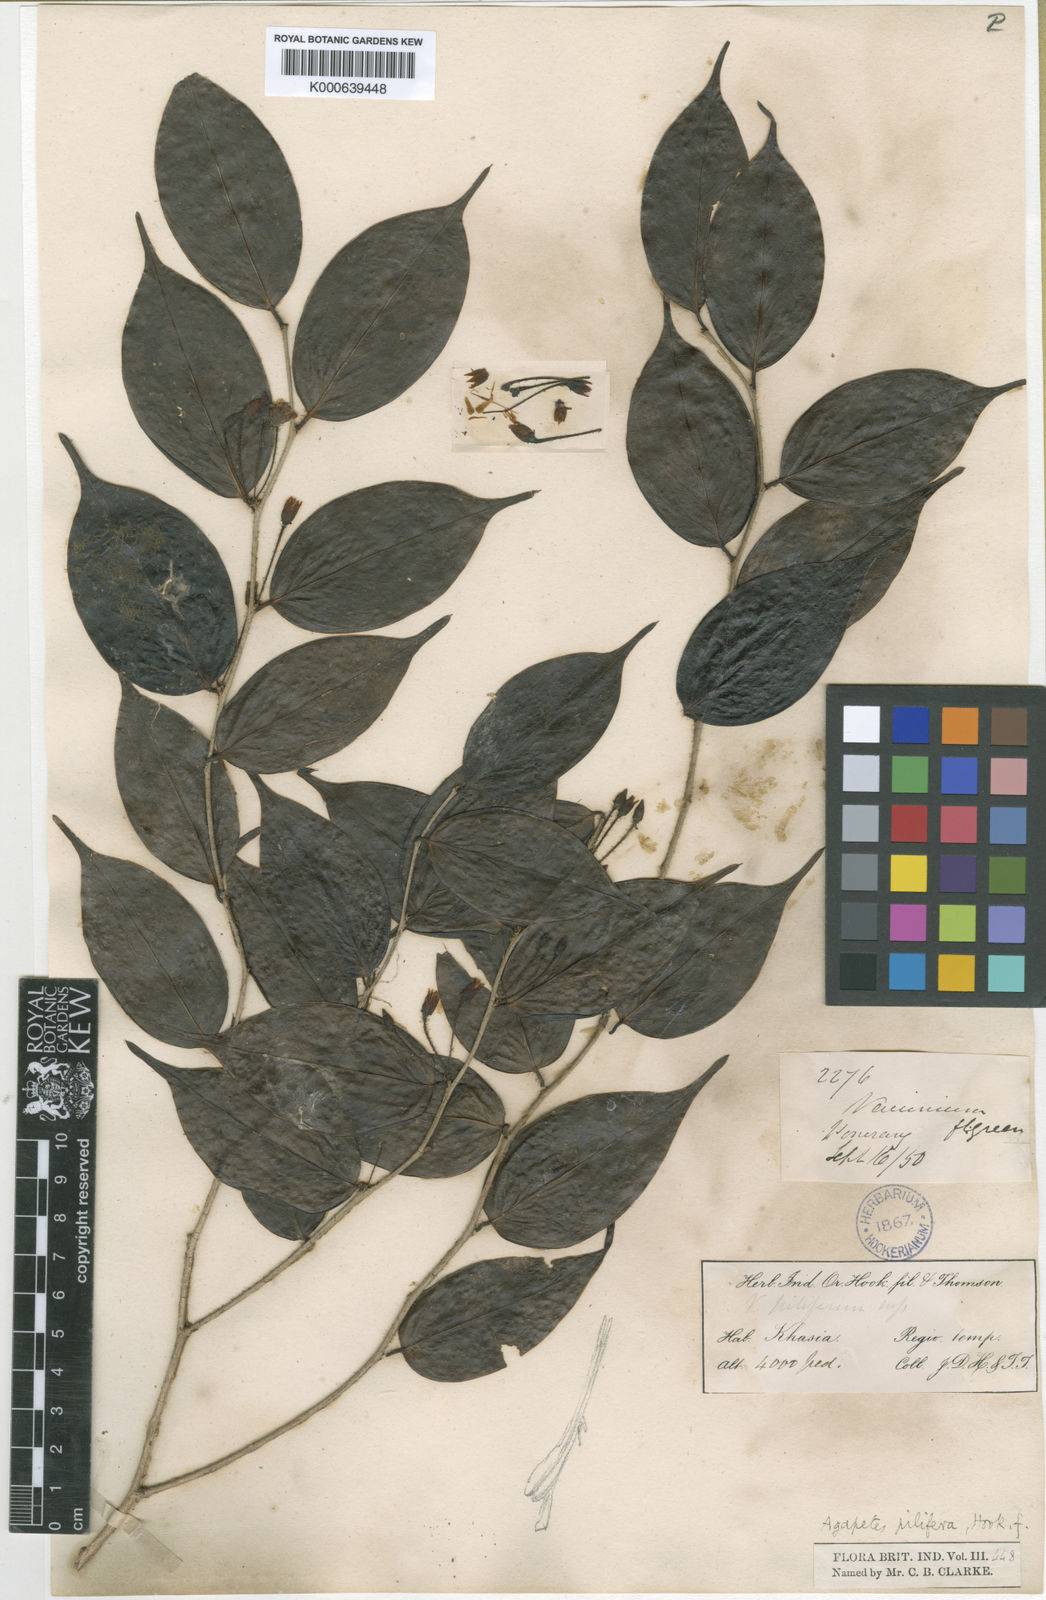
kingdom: Plantae
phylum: Tracheophyta
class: Magnoliopsida
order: Ericales
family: Ericaceae
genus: Vaccinium
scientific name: Vaccinium piliferum
